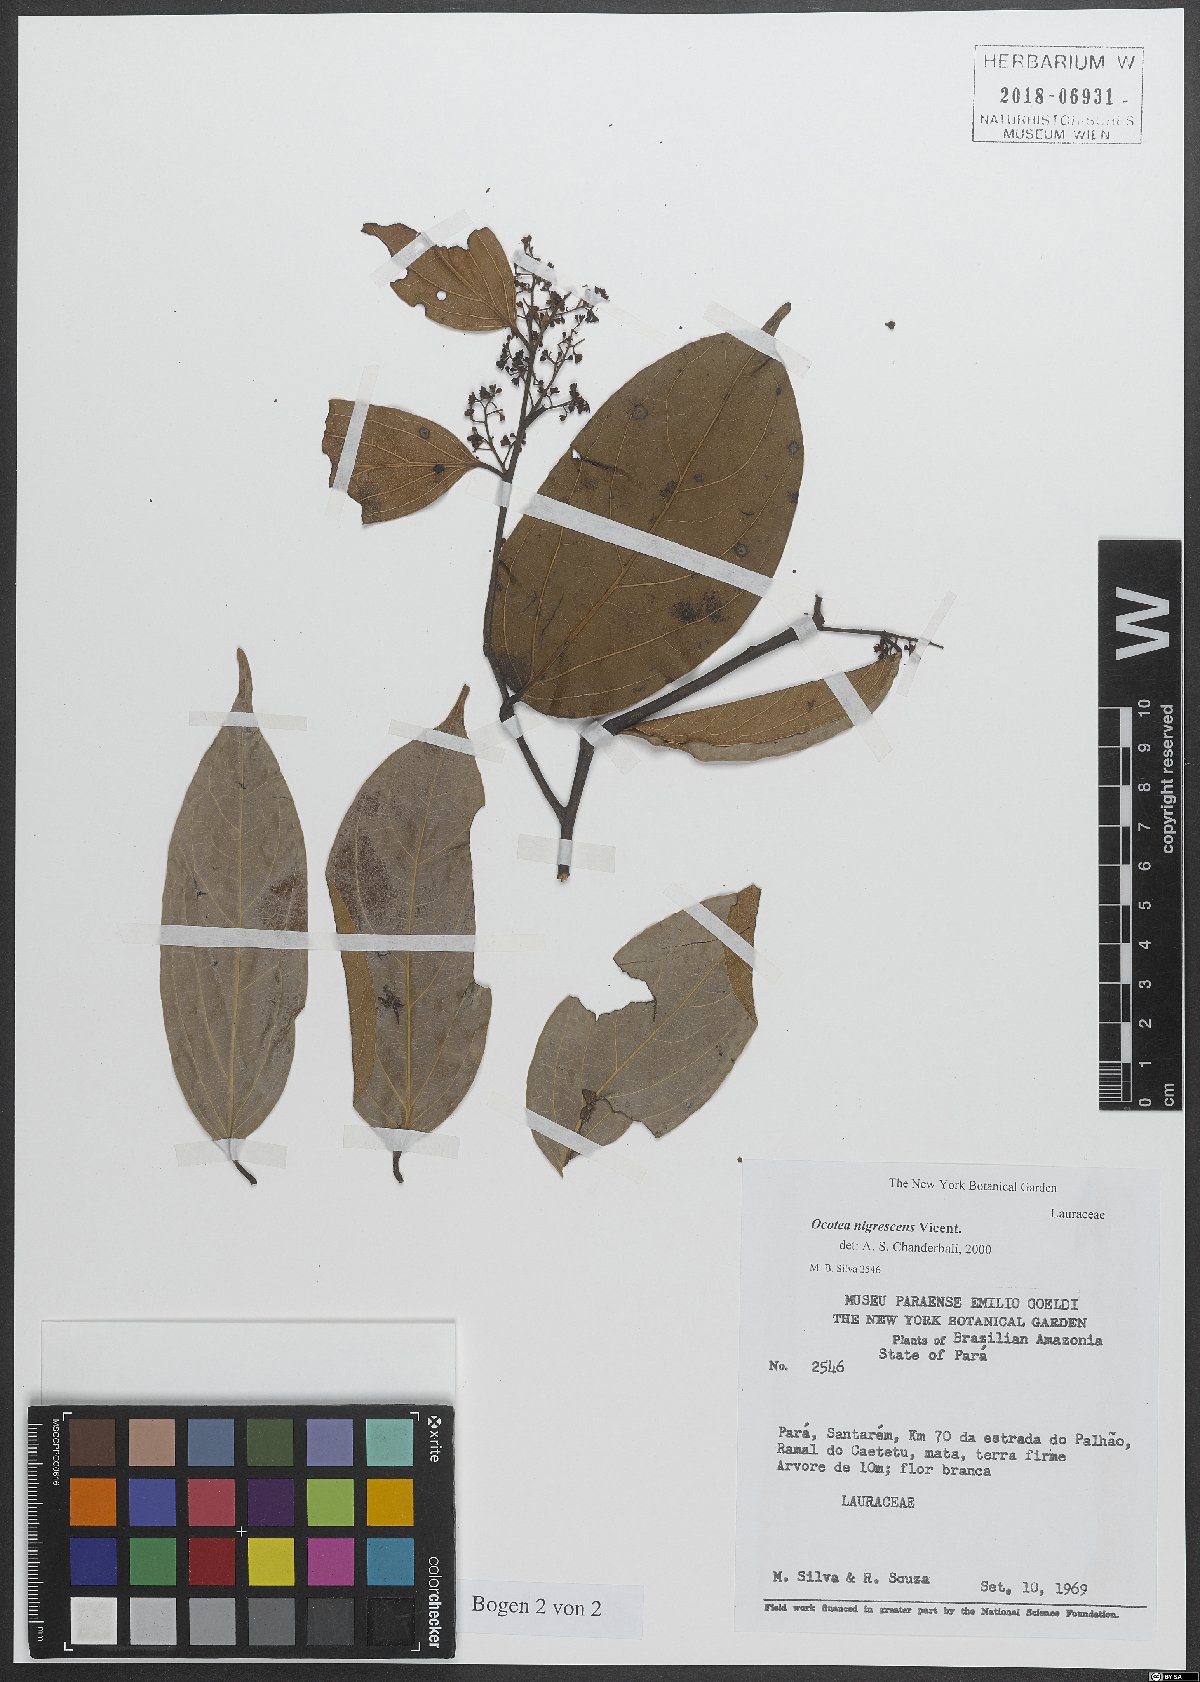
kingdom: Plantae
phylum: Tracheophyta
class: Magnoliopsida
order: Laurales
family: Lauraceae
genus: Ocotea
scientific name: Ocotea nigrescens
